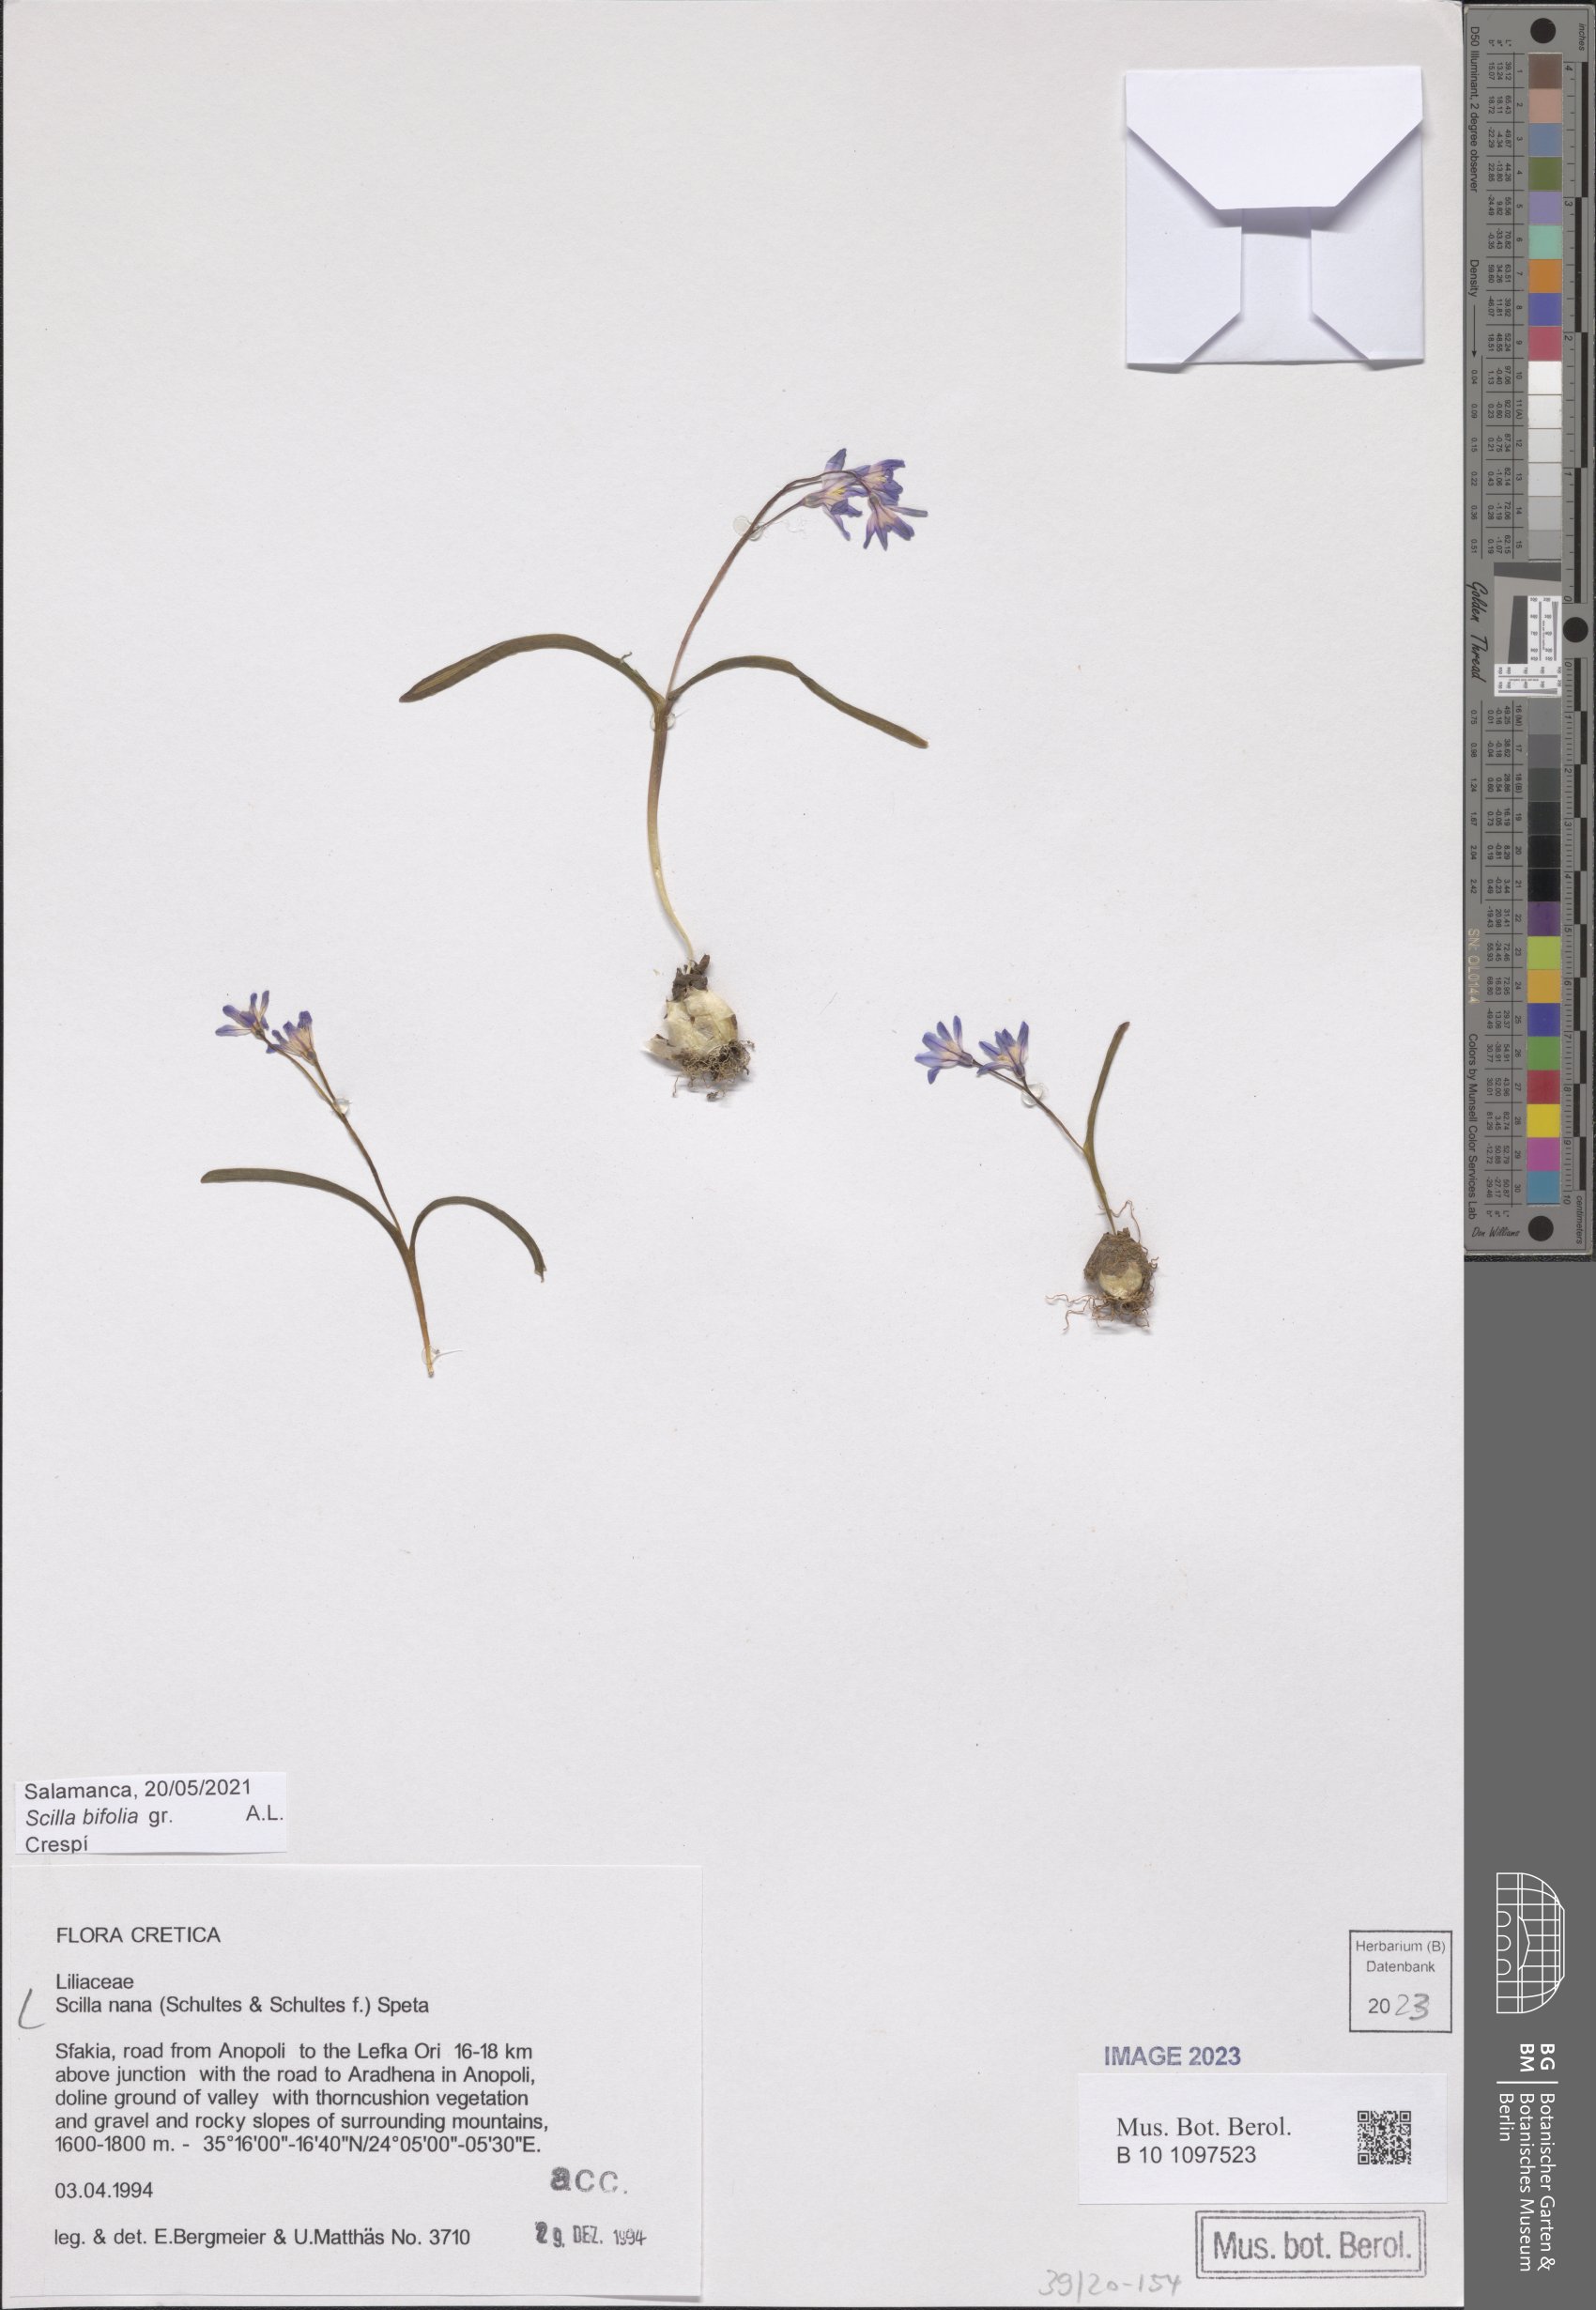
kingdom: Plantae
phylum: Tracheophyta
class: Liliopsida
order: Asparagales
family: Asparagaceae
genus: Scilla
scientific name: Scilla nana
